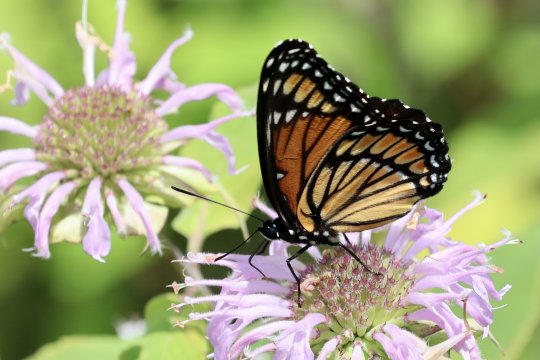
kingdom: Animalia
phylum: Arthropoda
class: Insecta
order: Lepidoptera
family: Nymphalidae
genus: Limenitis
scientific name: Limenitis archippus
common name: Viceroy
